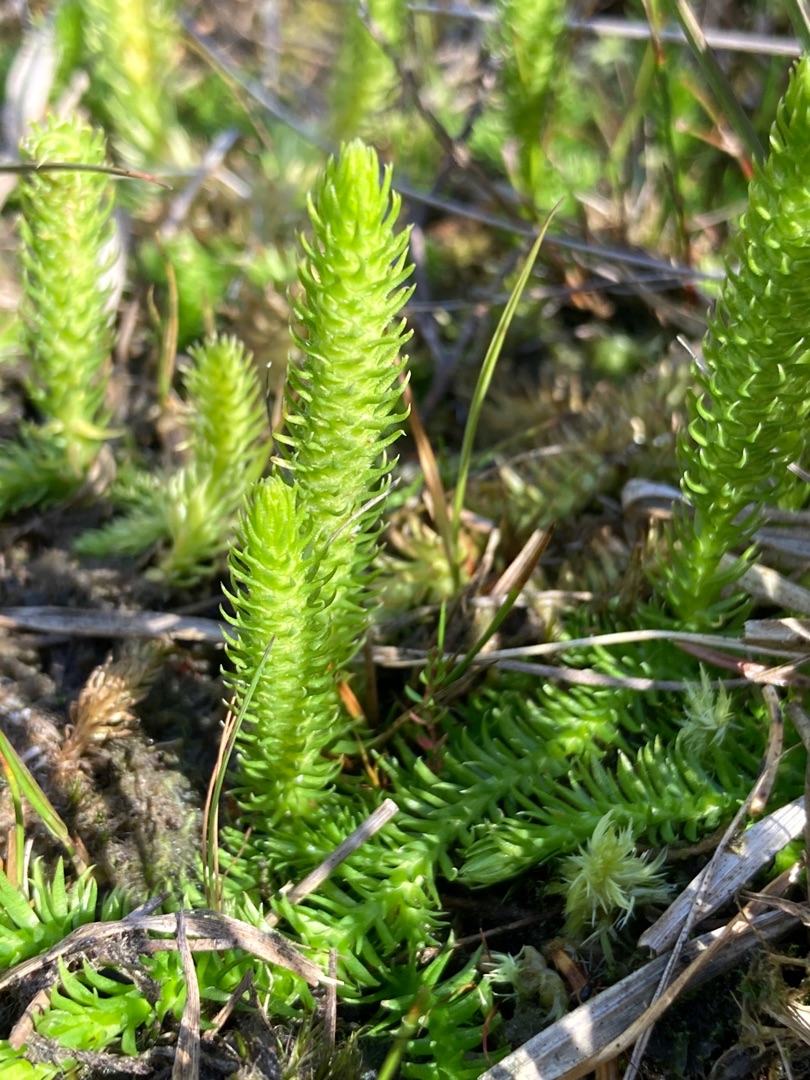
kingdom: Plantae
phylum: Tracheophyta
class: Lycopodiopsida
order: Lycopodiales
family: Lycopodiaceae
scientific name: Lycopodiaceae
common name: Ulvefodfamilien
